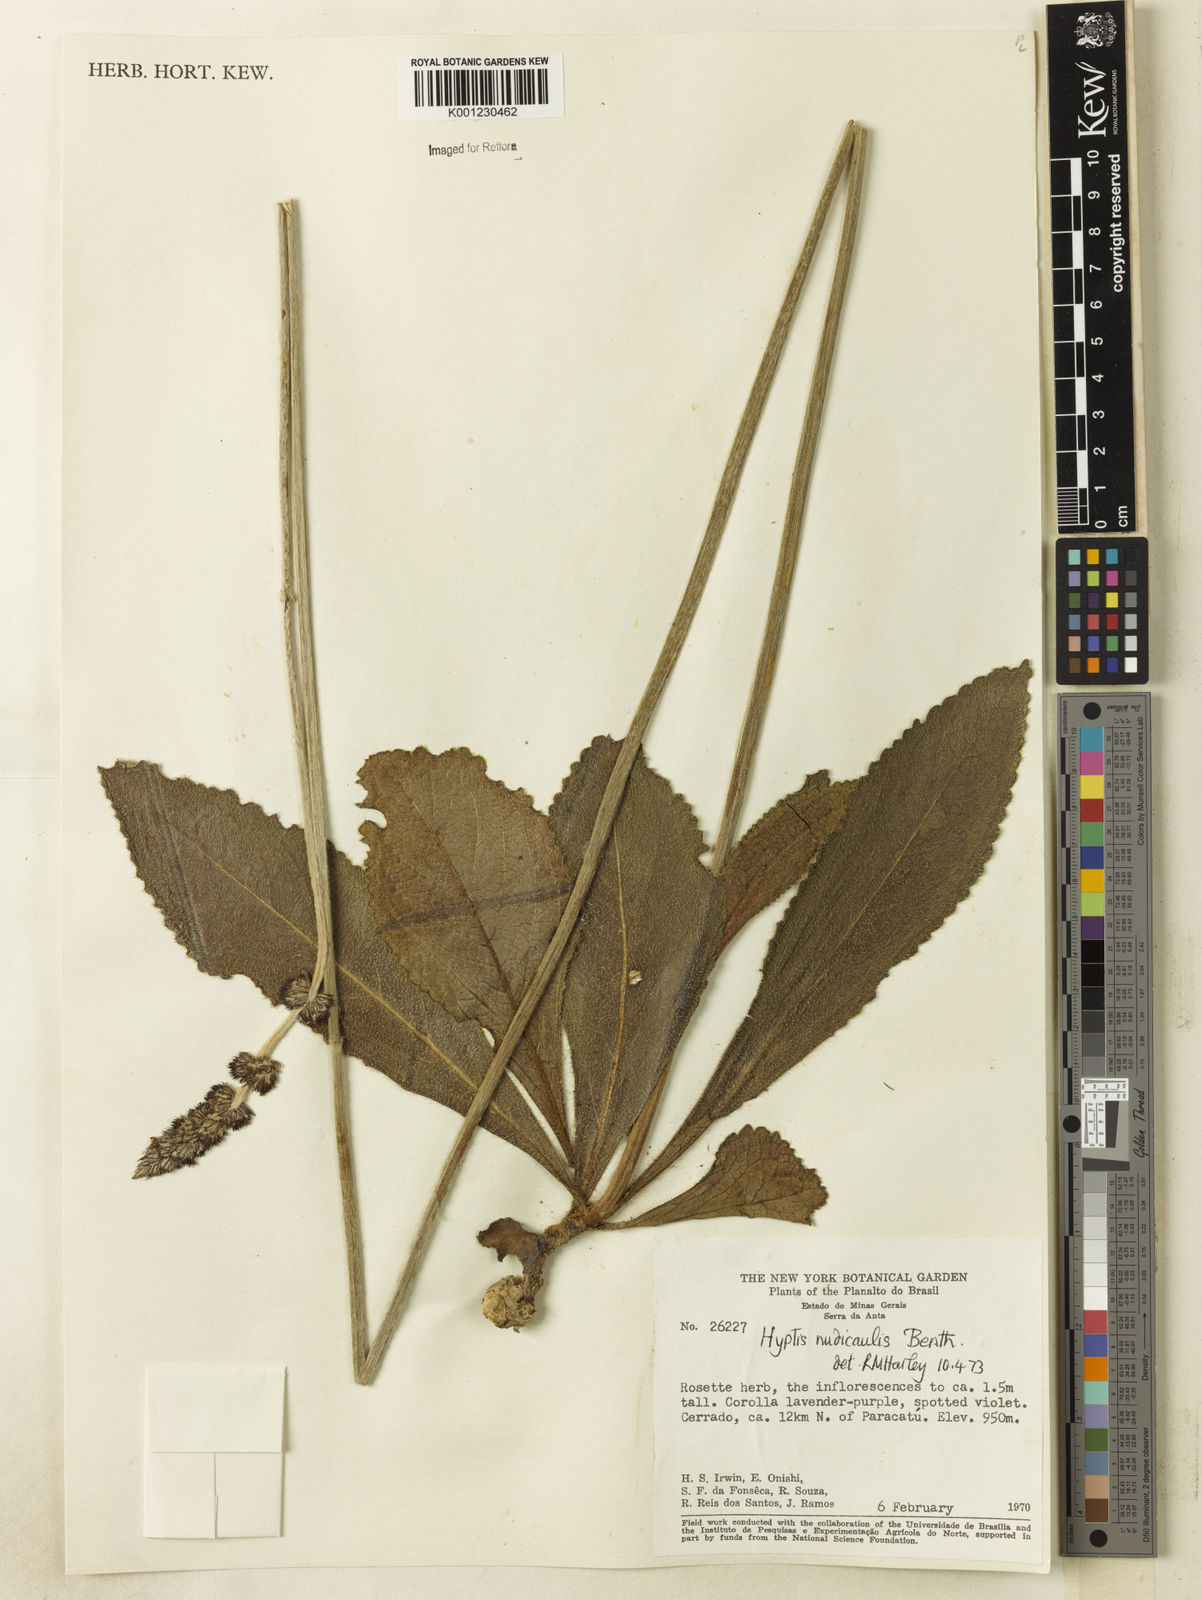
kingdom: Plantae
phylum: Tracheophyta
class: Magnoliopsida
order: Lamiales
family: Lamiaceae
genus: Hyptis
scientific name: Hyptis nudicaulis
